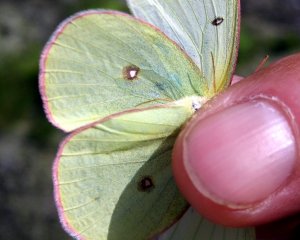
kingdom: Animalia
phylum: Arthropoda
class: Insecta
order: Lepidoptera
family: Pieridae
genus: Colias
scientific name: Colias interior
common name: Pink-edged Sulphur
